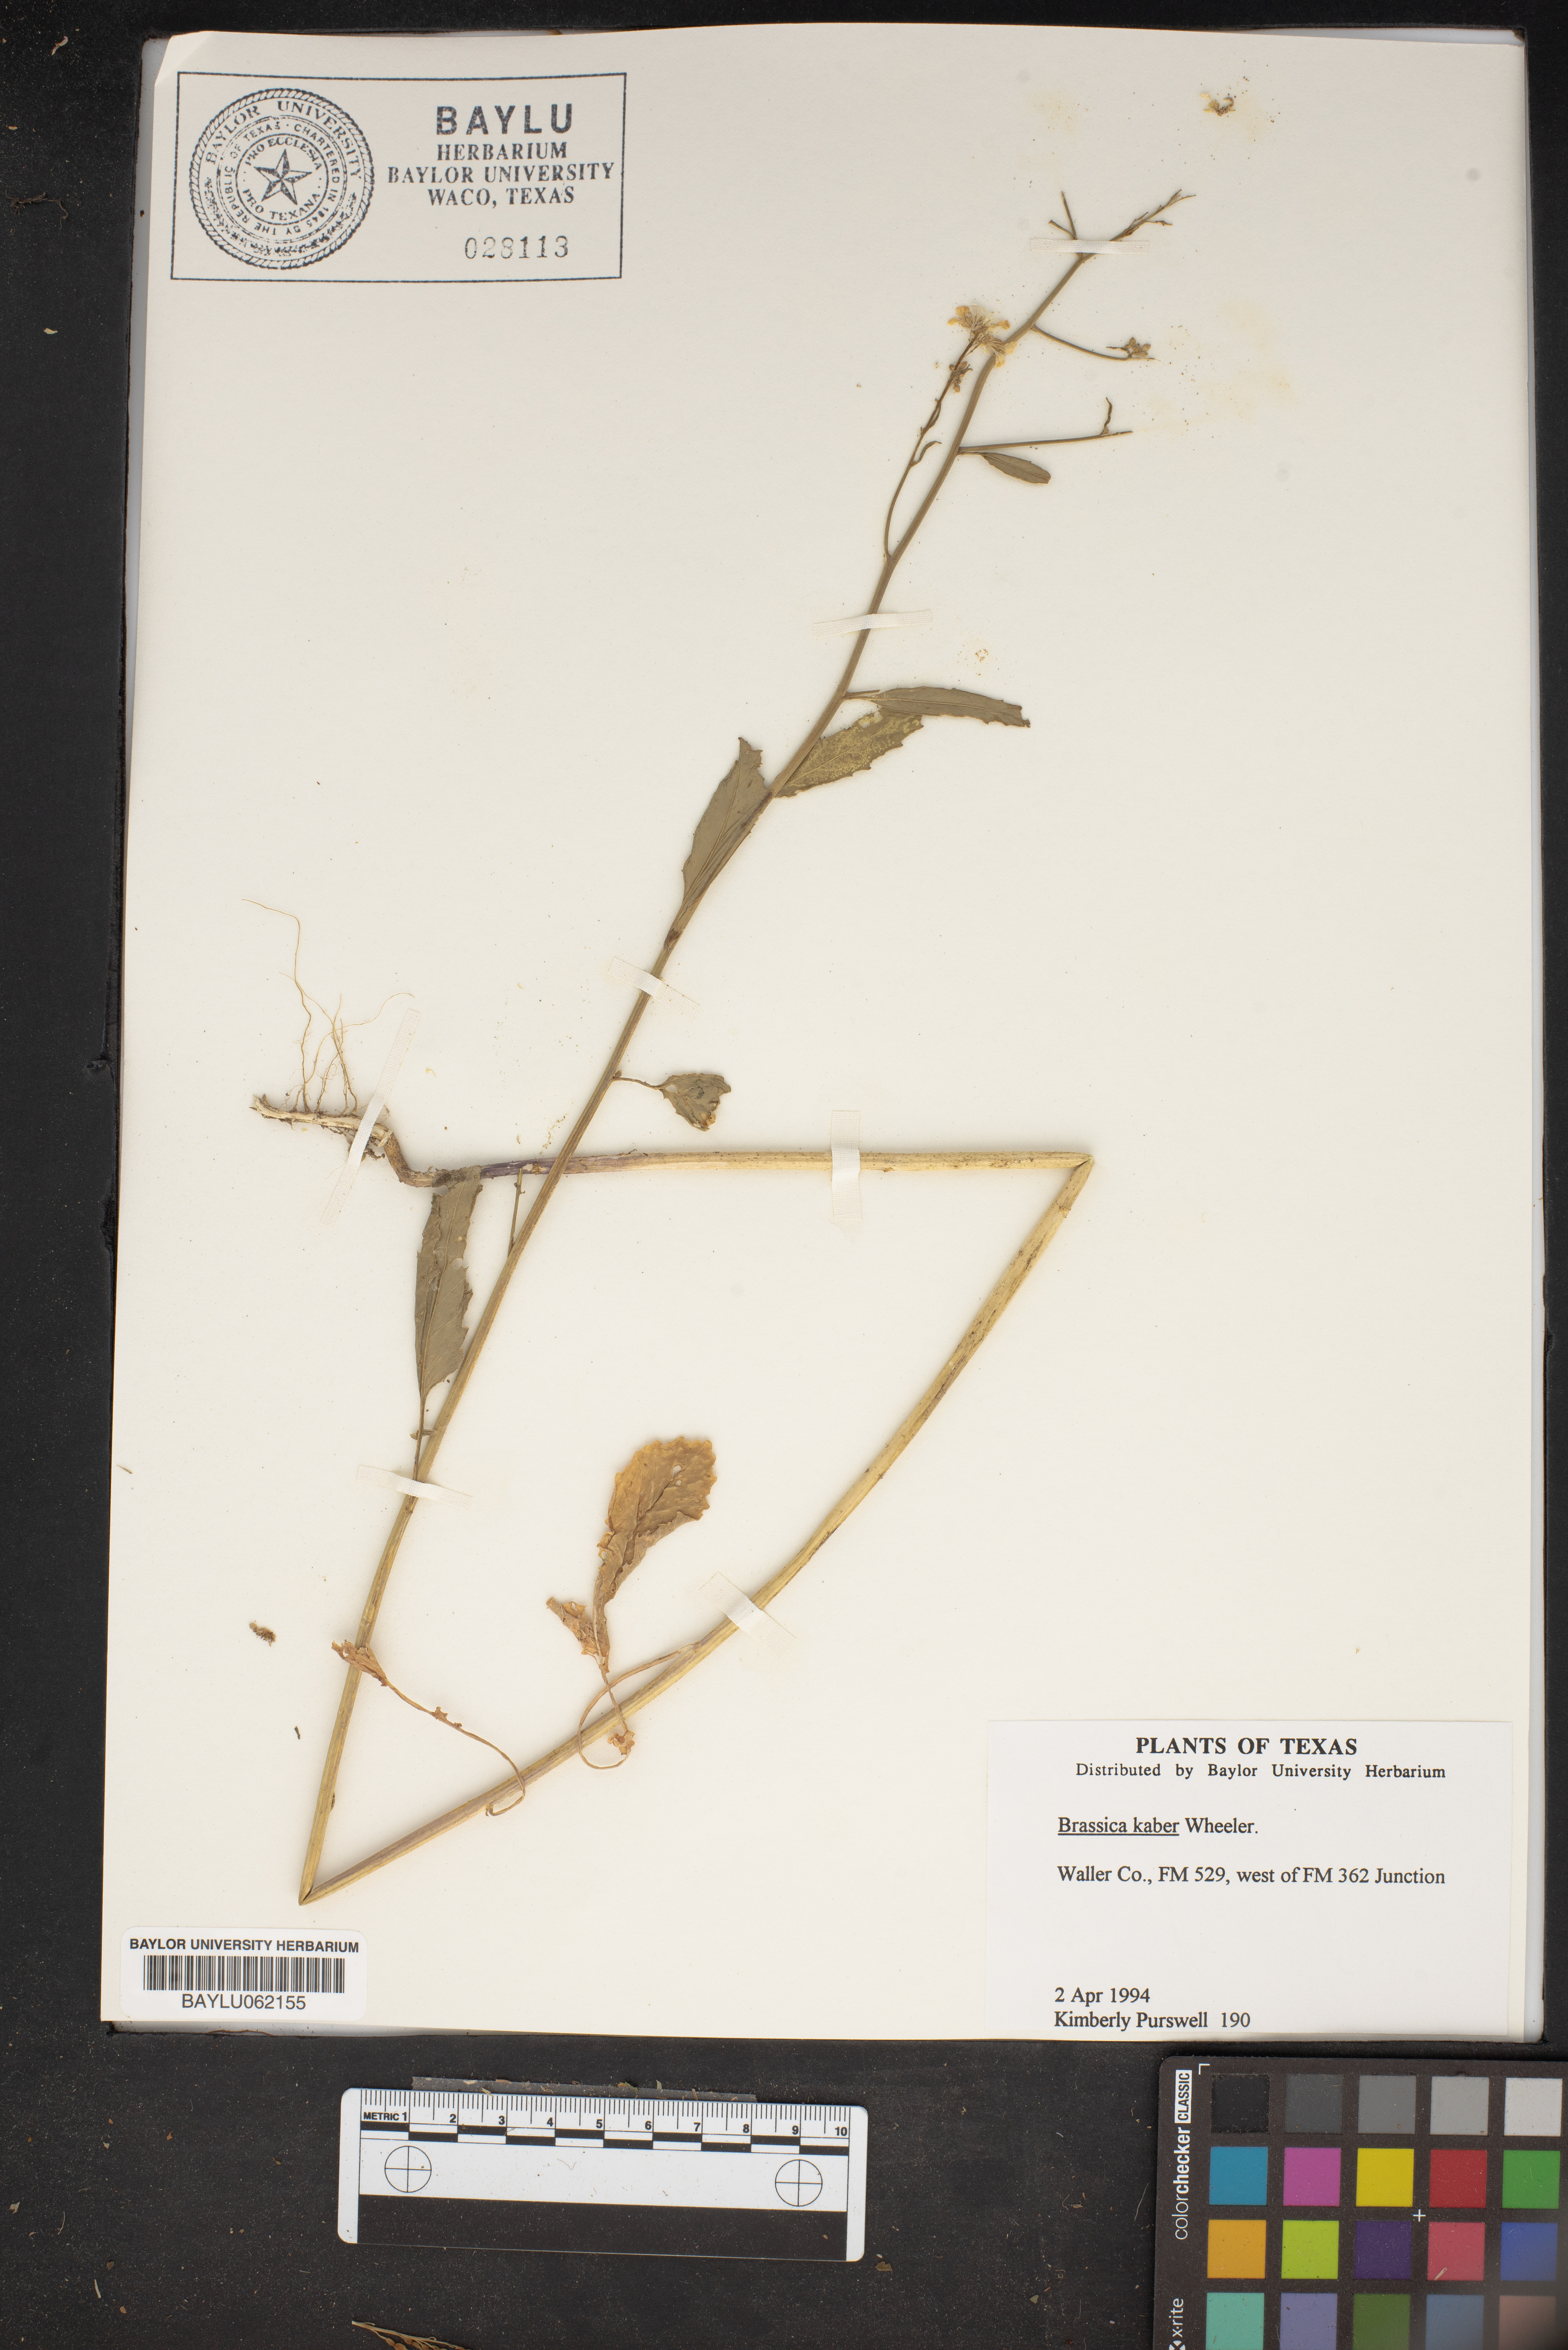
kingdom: Plantae
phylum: Tracheophyta
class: Magnoliopsida
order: Brassicales
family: Brassicaceae
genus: Sinapis
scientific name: Sinapis arvensis
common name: Charlock
